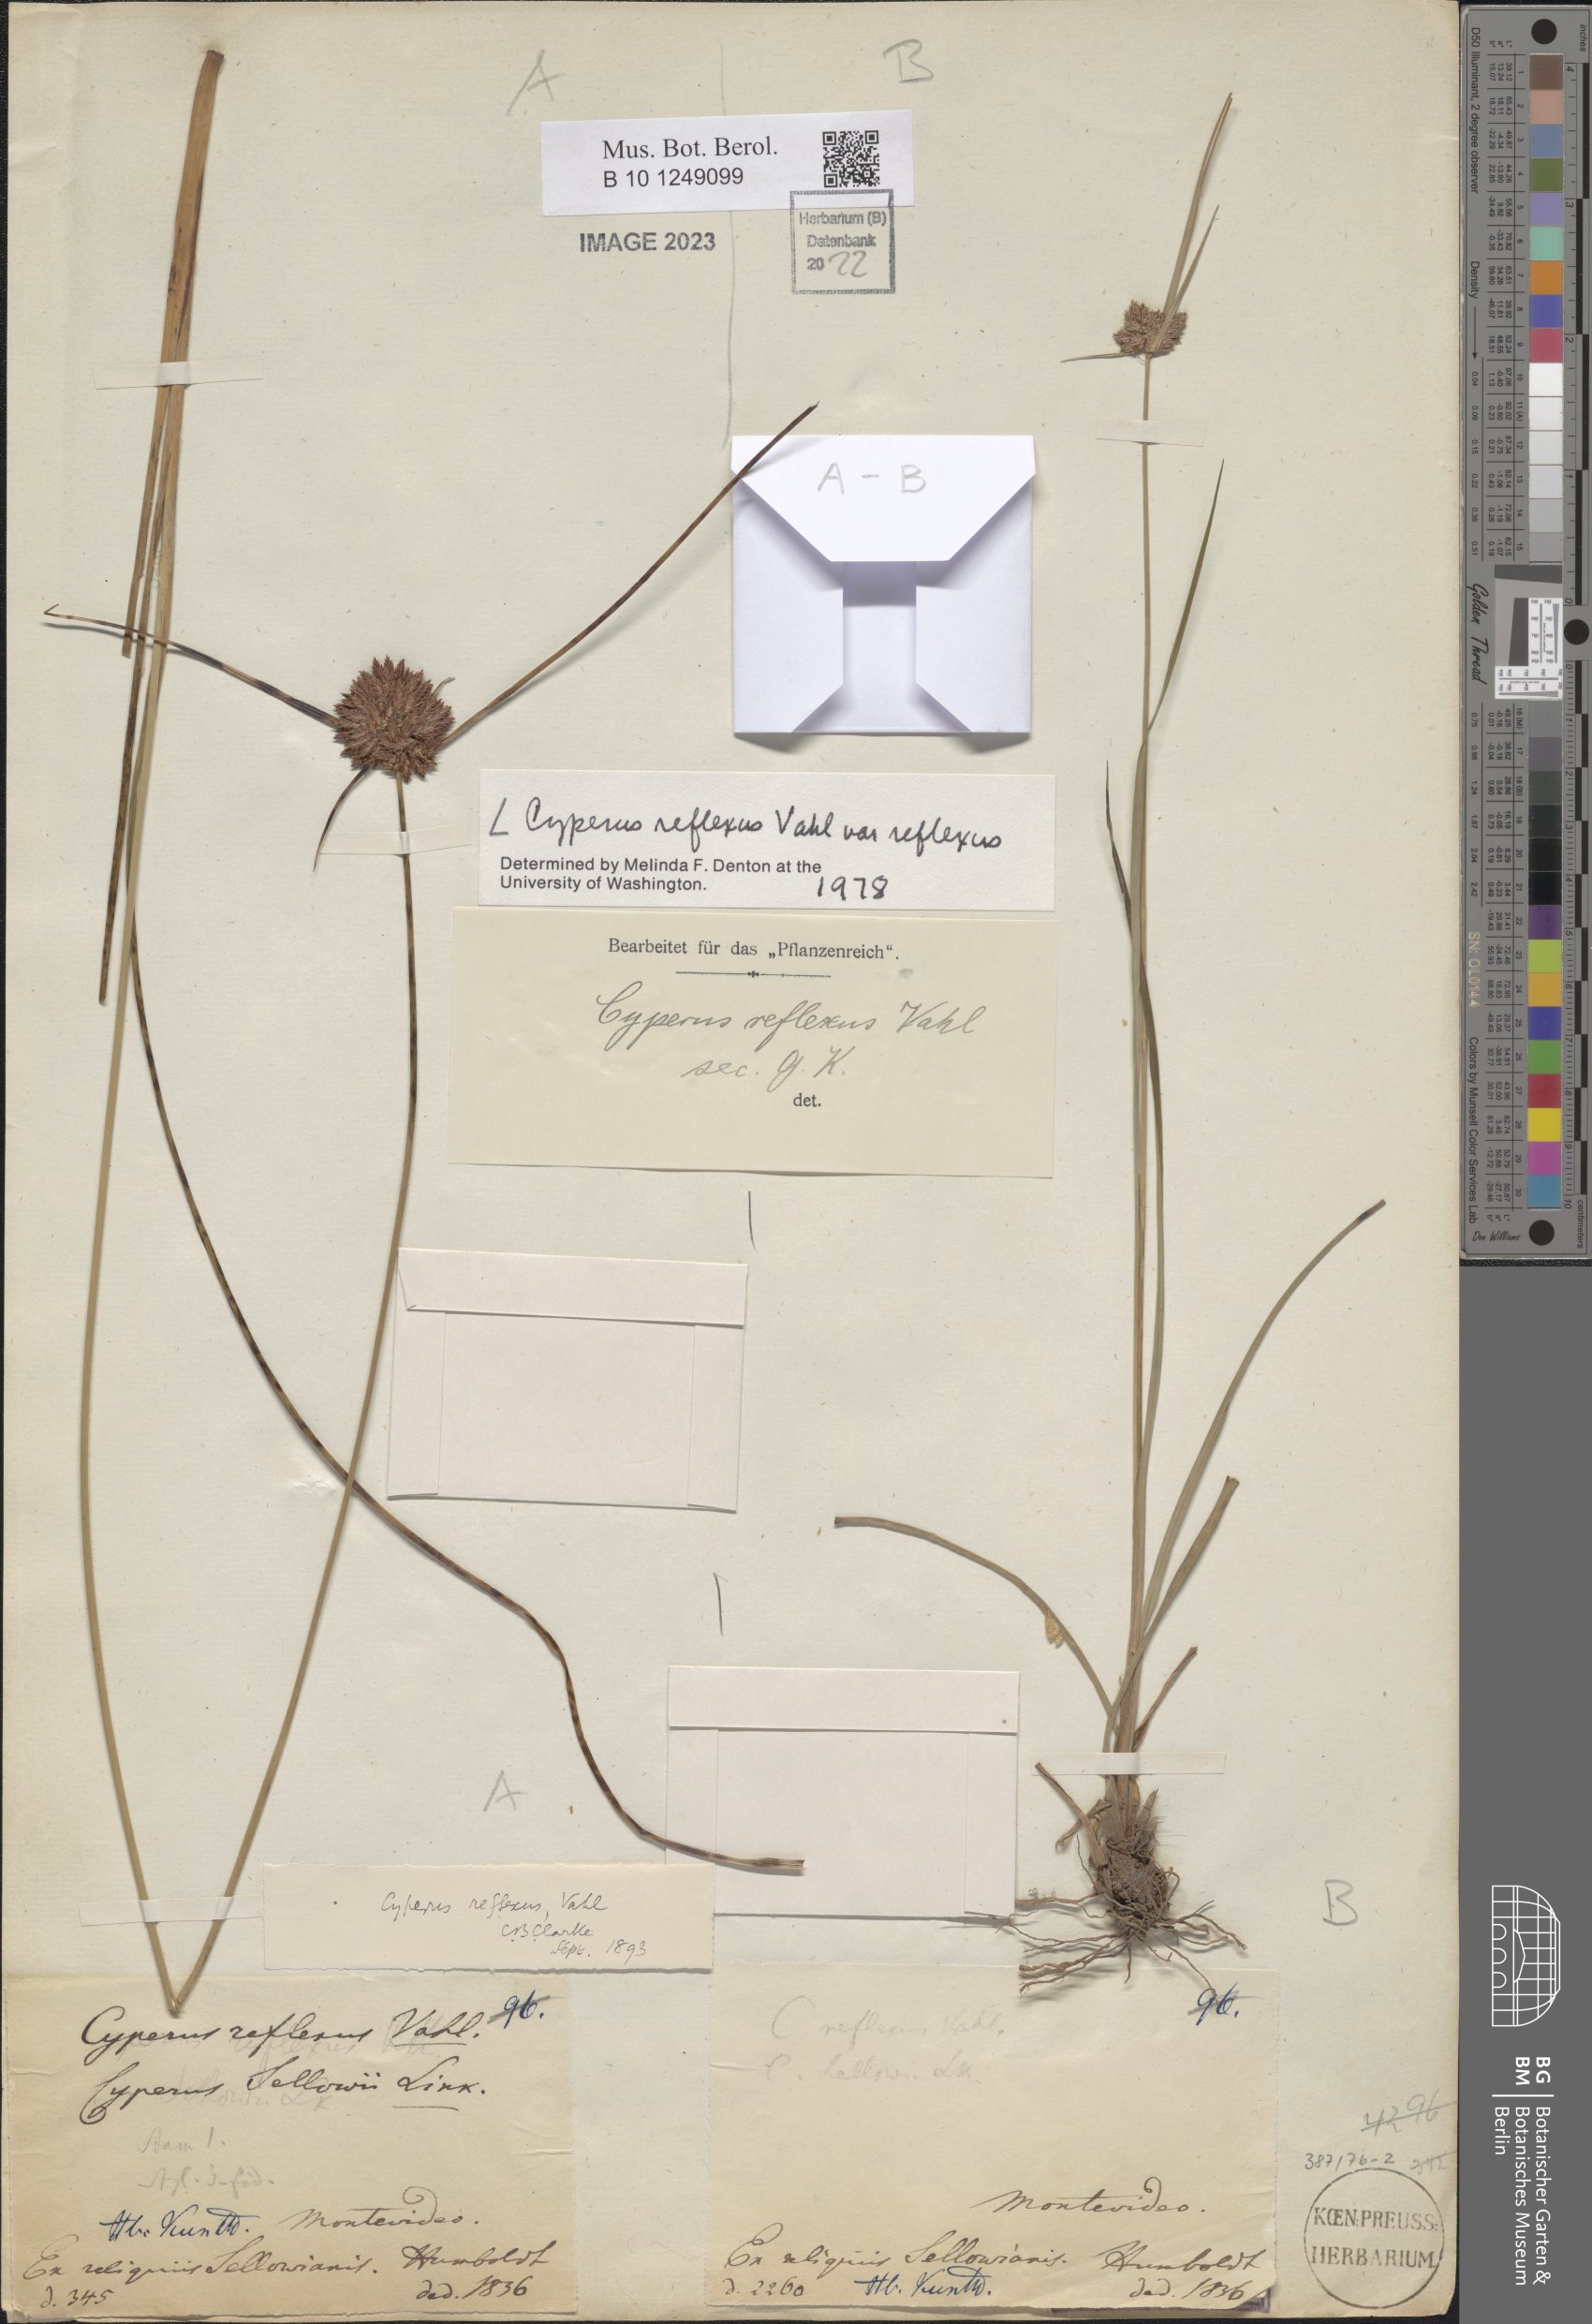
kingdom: Plantae
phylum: Tracheophyta
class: Liliopsida
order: Poales
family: Cyperaceae
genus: Cyperus
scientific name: Cyperus reflexus
